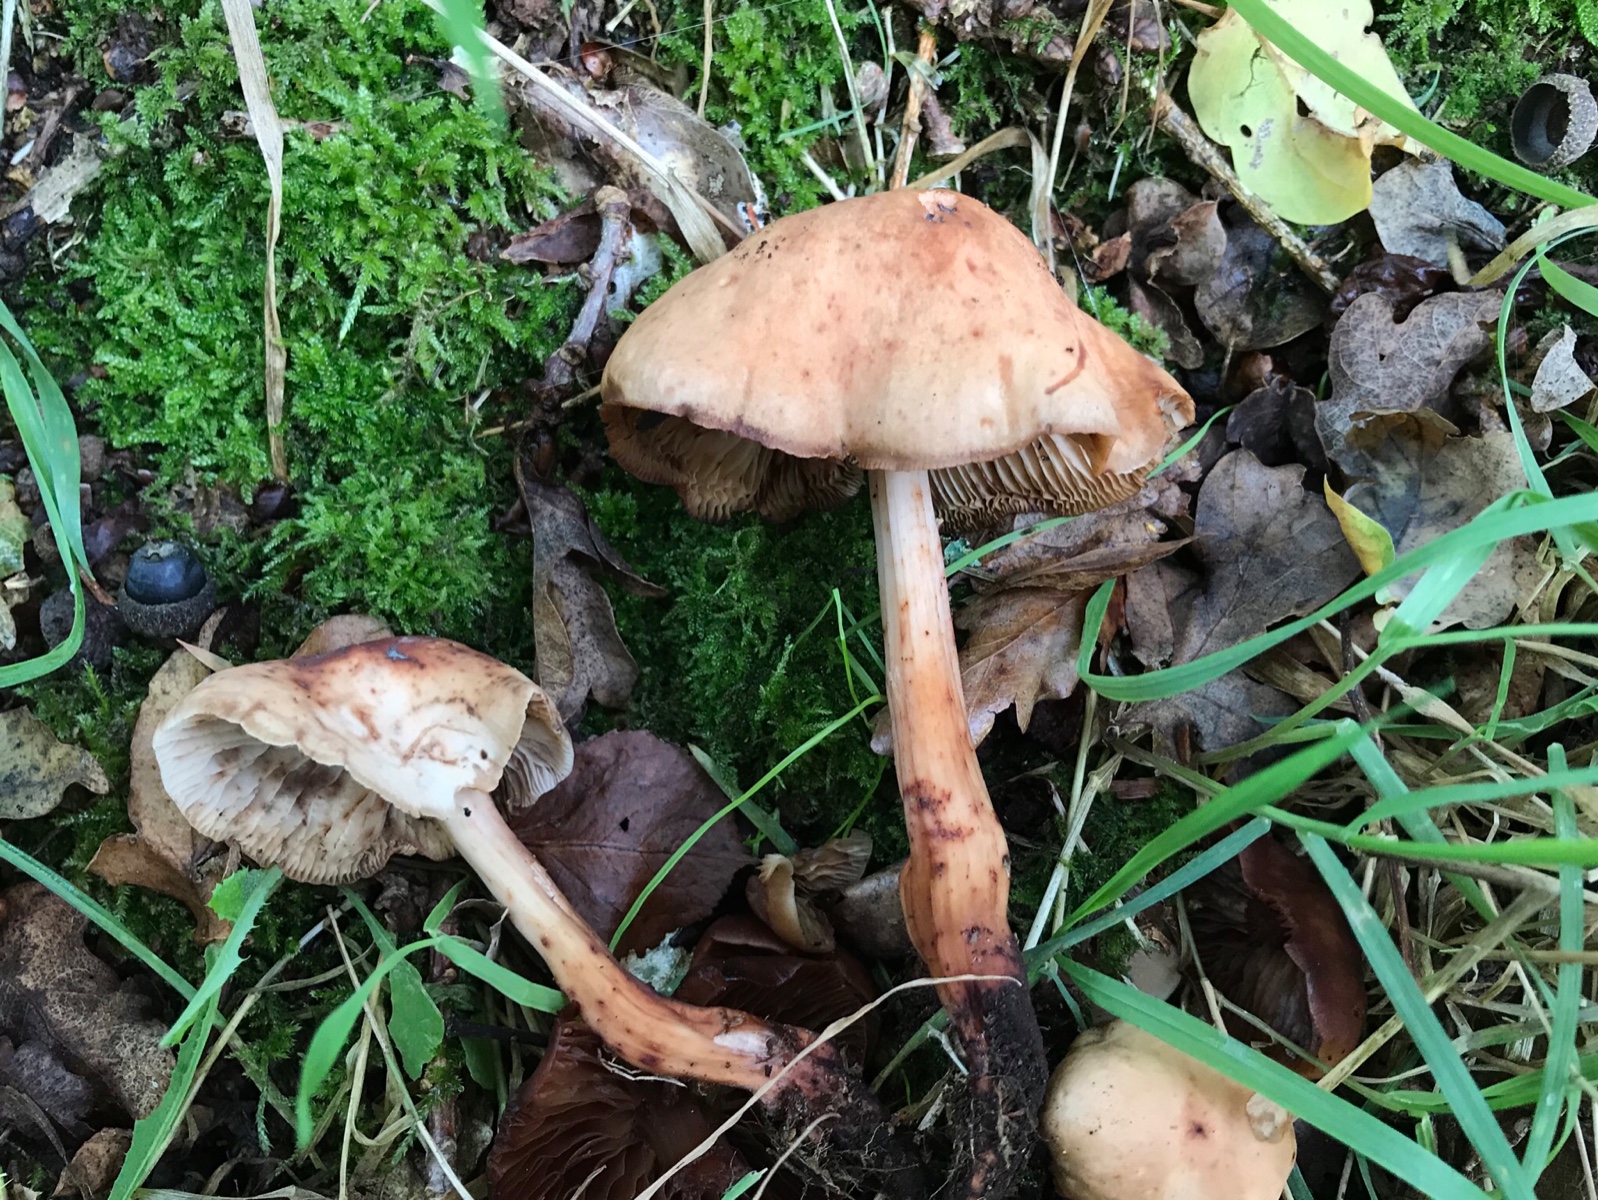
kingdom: Fungi
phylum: Basidiomycota
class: Agaricomycetes
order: Agaricales
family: Omphalotaceae
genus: Gymnopus
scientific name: Gymnopus fusipes
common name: tenstokket fladhat
